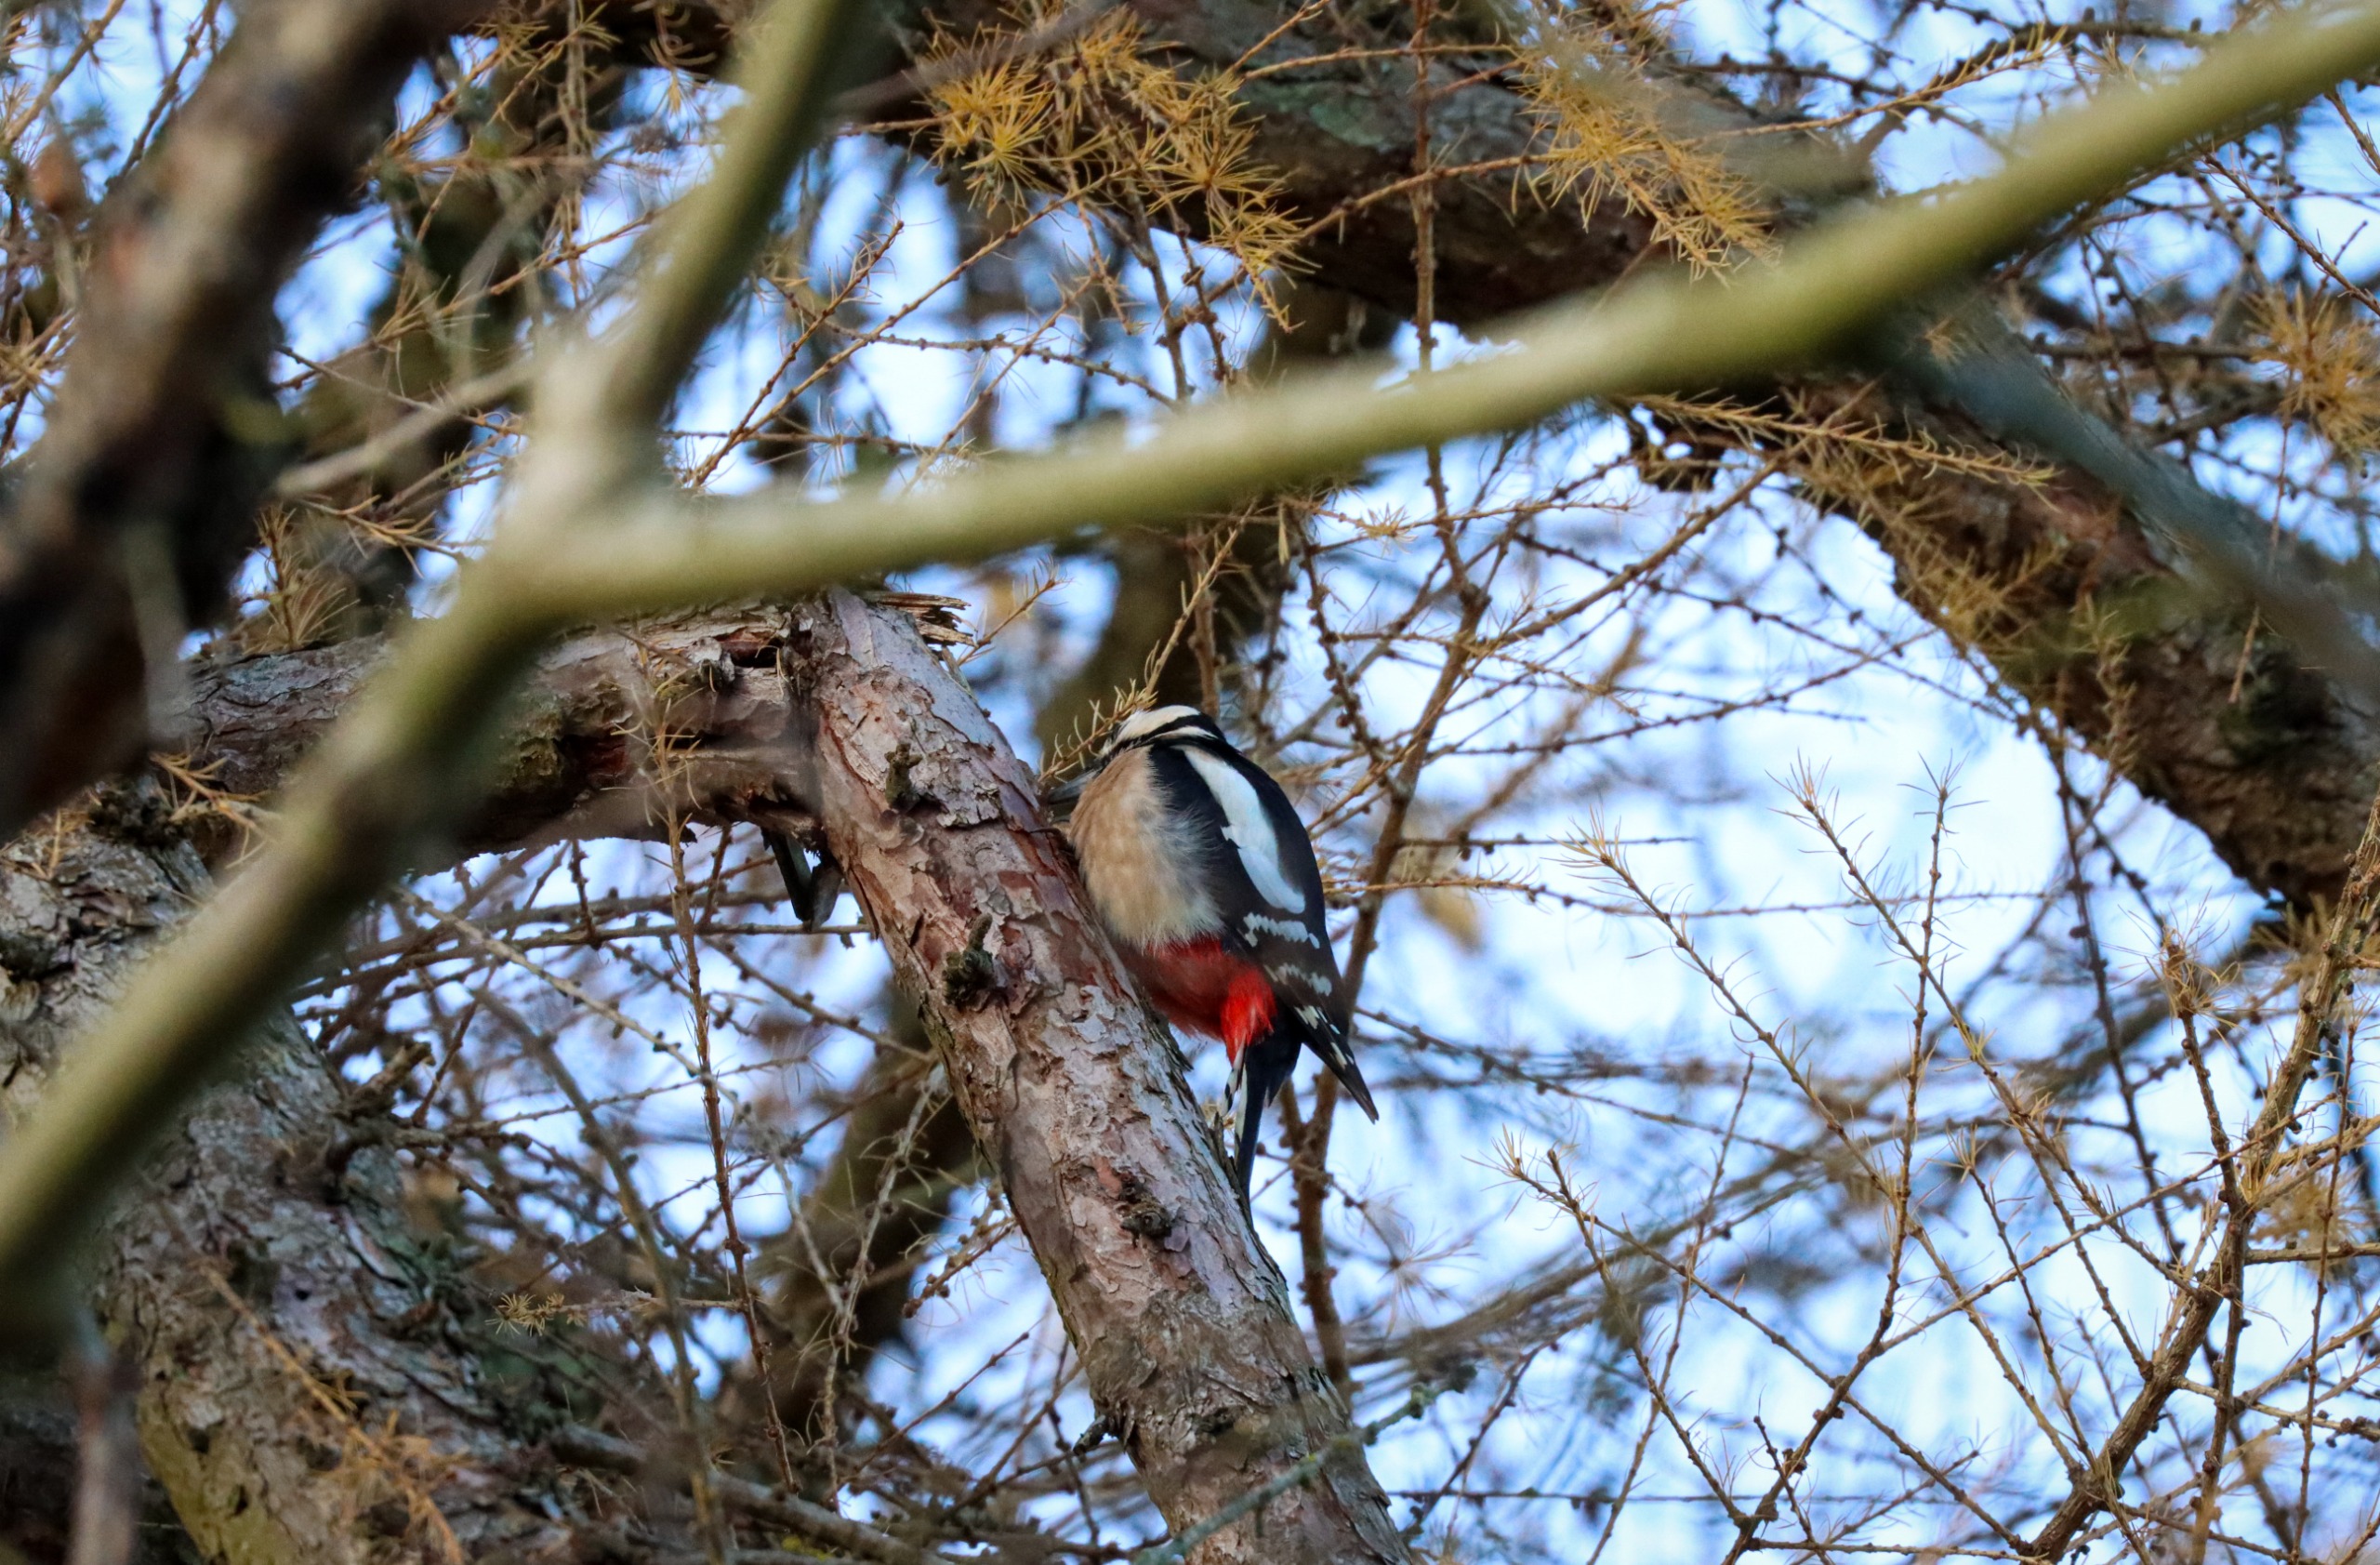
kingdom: Animalia
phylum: Chordata
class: Aves
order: Piciformes
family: Picidae
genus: Dendrocopos
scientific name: Dendrocopos major
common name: Stor flagspætte
